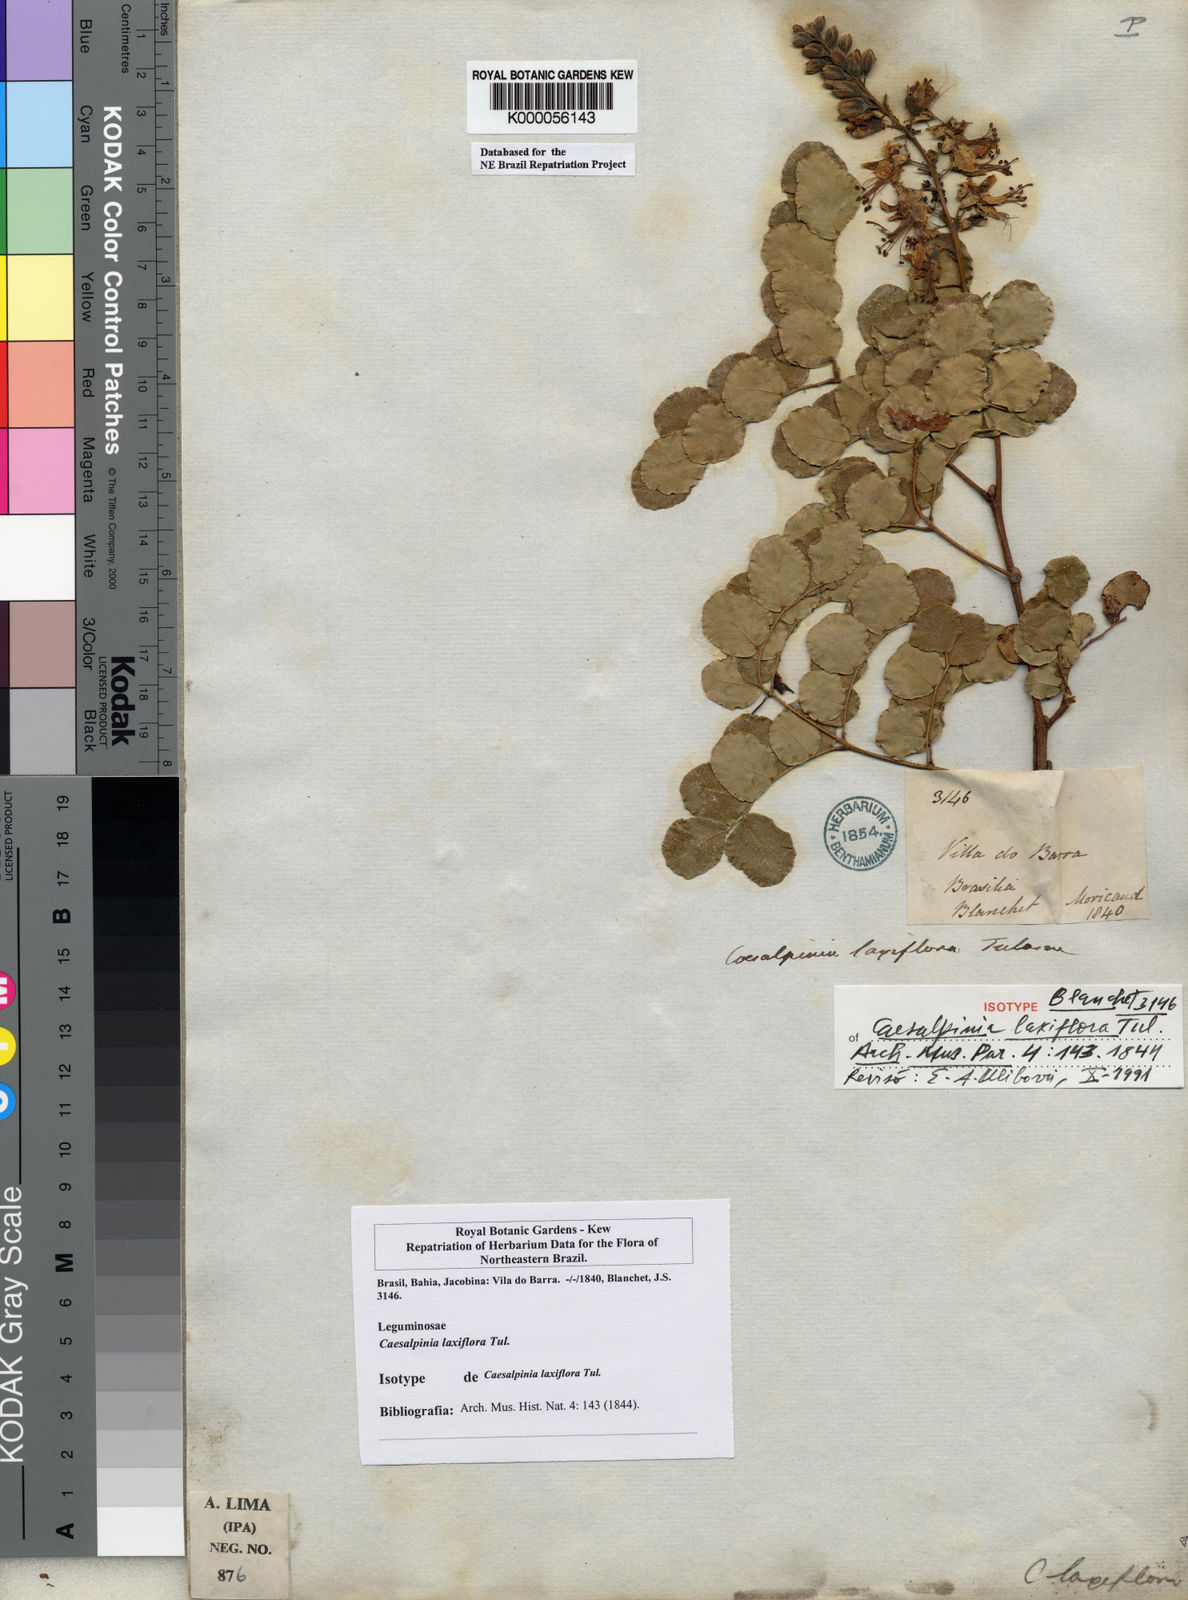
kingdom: Plantae
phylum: Tracheophyta
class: Magnoliopsida
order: Fabales
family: Fabaceae
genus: Cenostigma
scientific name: Cenostigma laxiflorum
